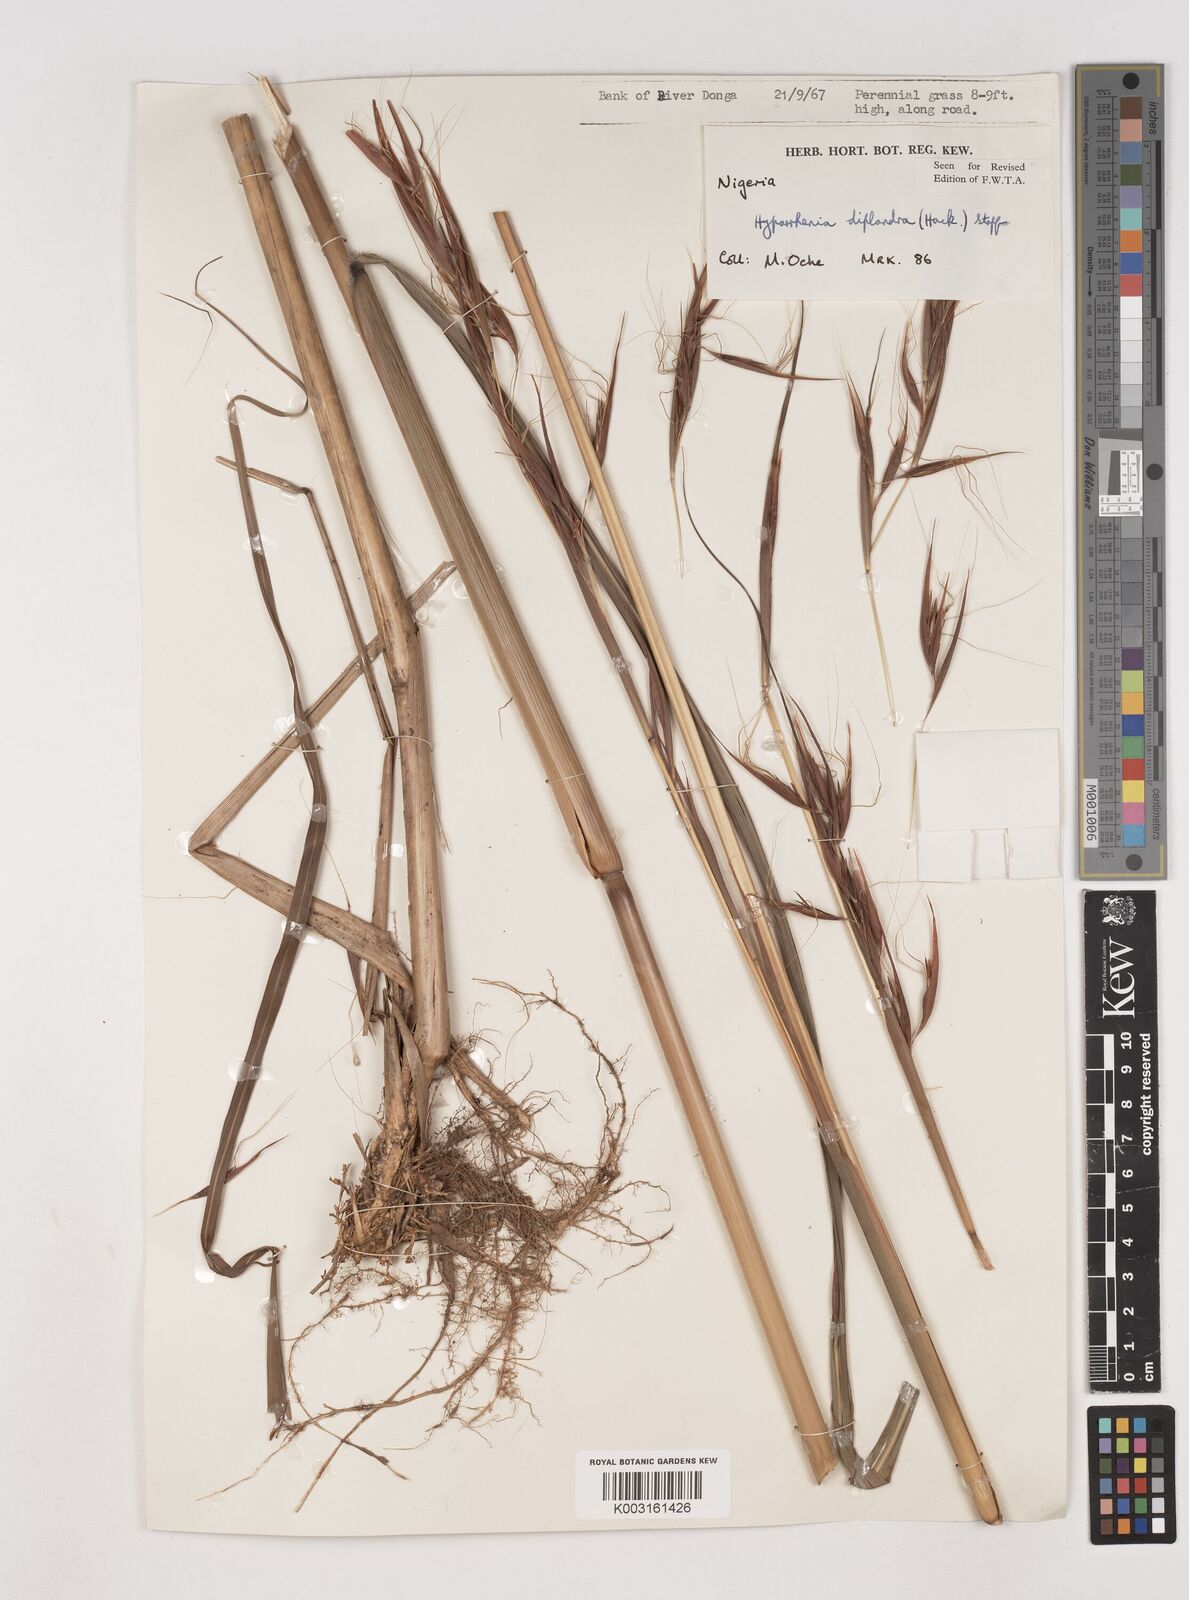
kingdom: Plantae
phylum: Tracheophyta
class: Liliopsida
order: Poales
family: Poaceae
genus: Hyparrhenia
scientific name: Hyparrhenia diplandra
